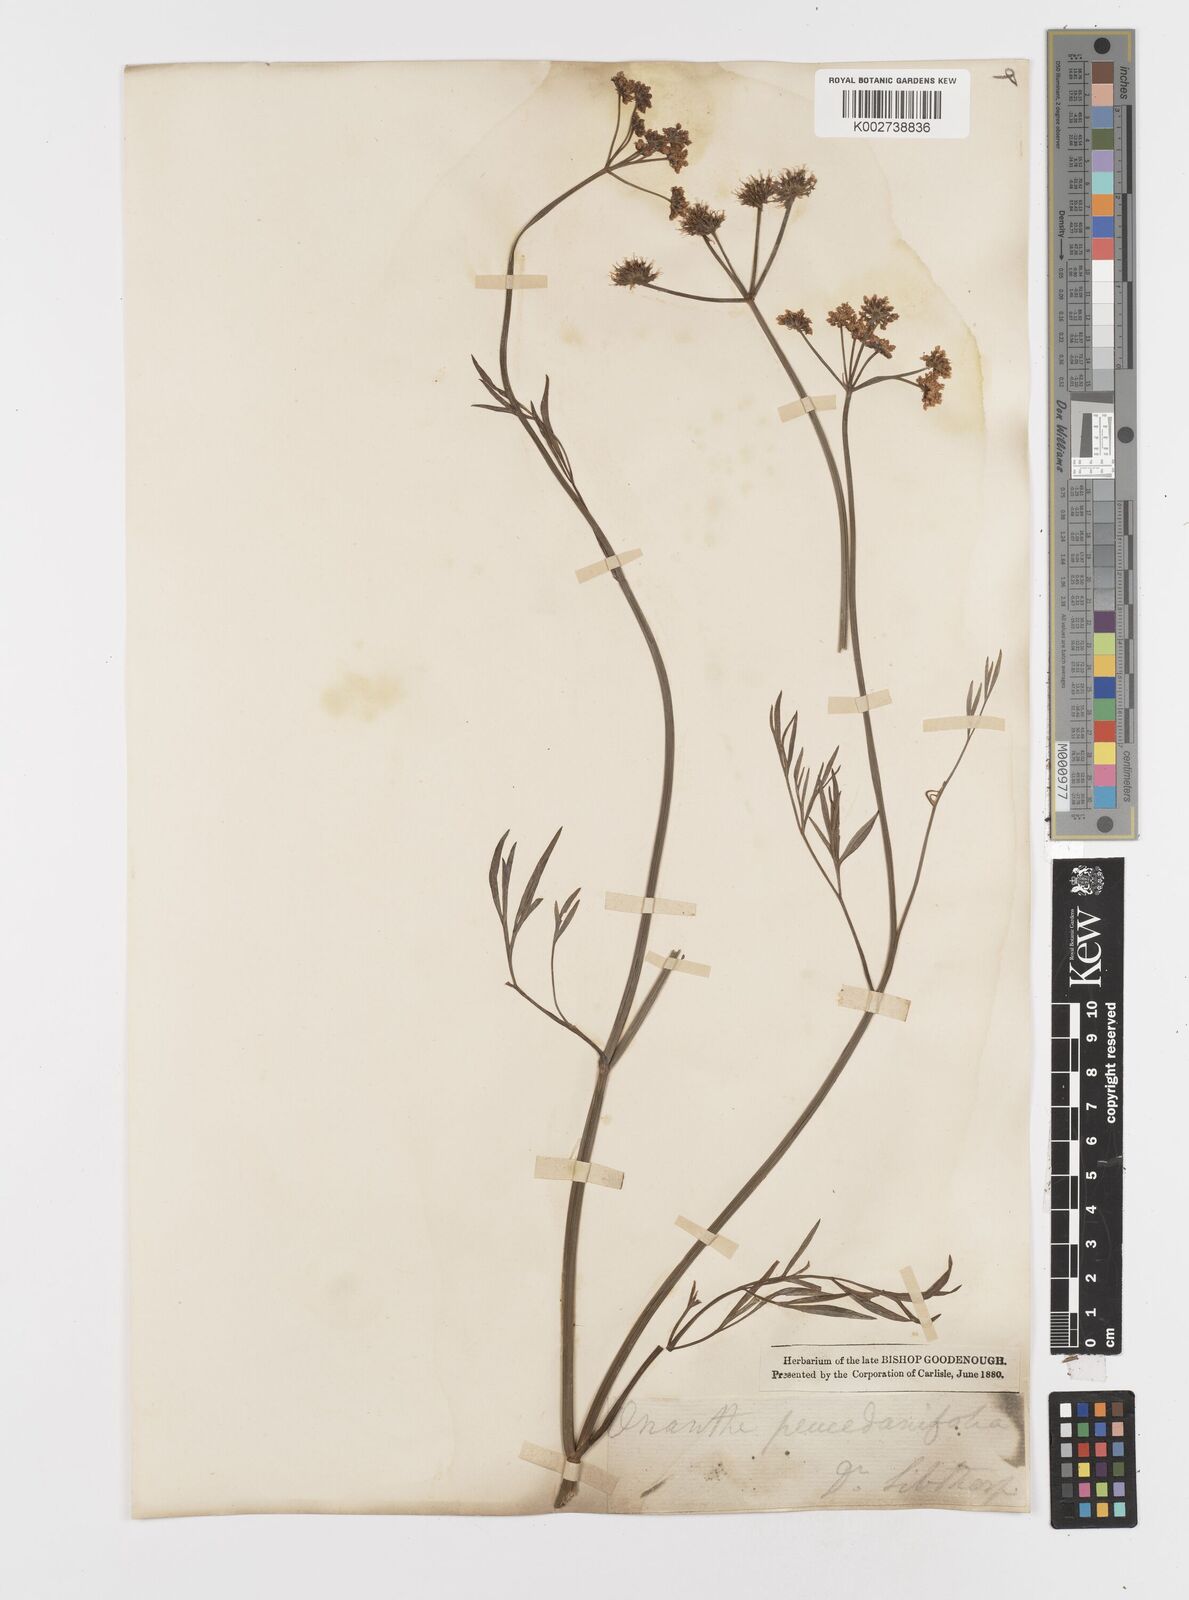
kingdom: Plantae
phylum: Tracheophyta
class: Magnoliopsida
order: Apiales
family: Apiaceae
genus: Oenanthe
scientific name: Oenanthe silaifolia
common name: Narrow-leaved water-dropwort
